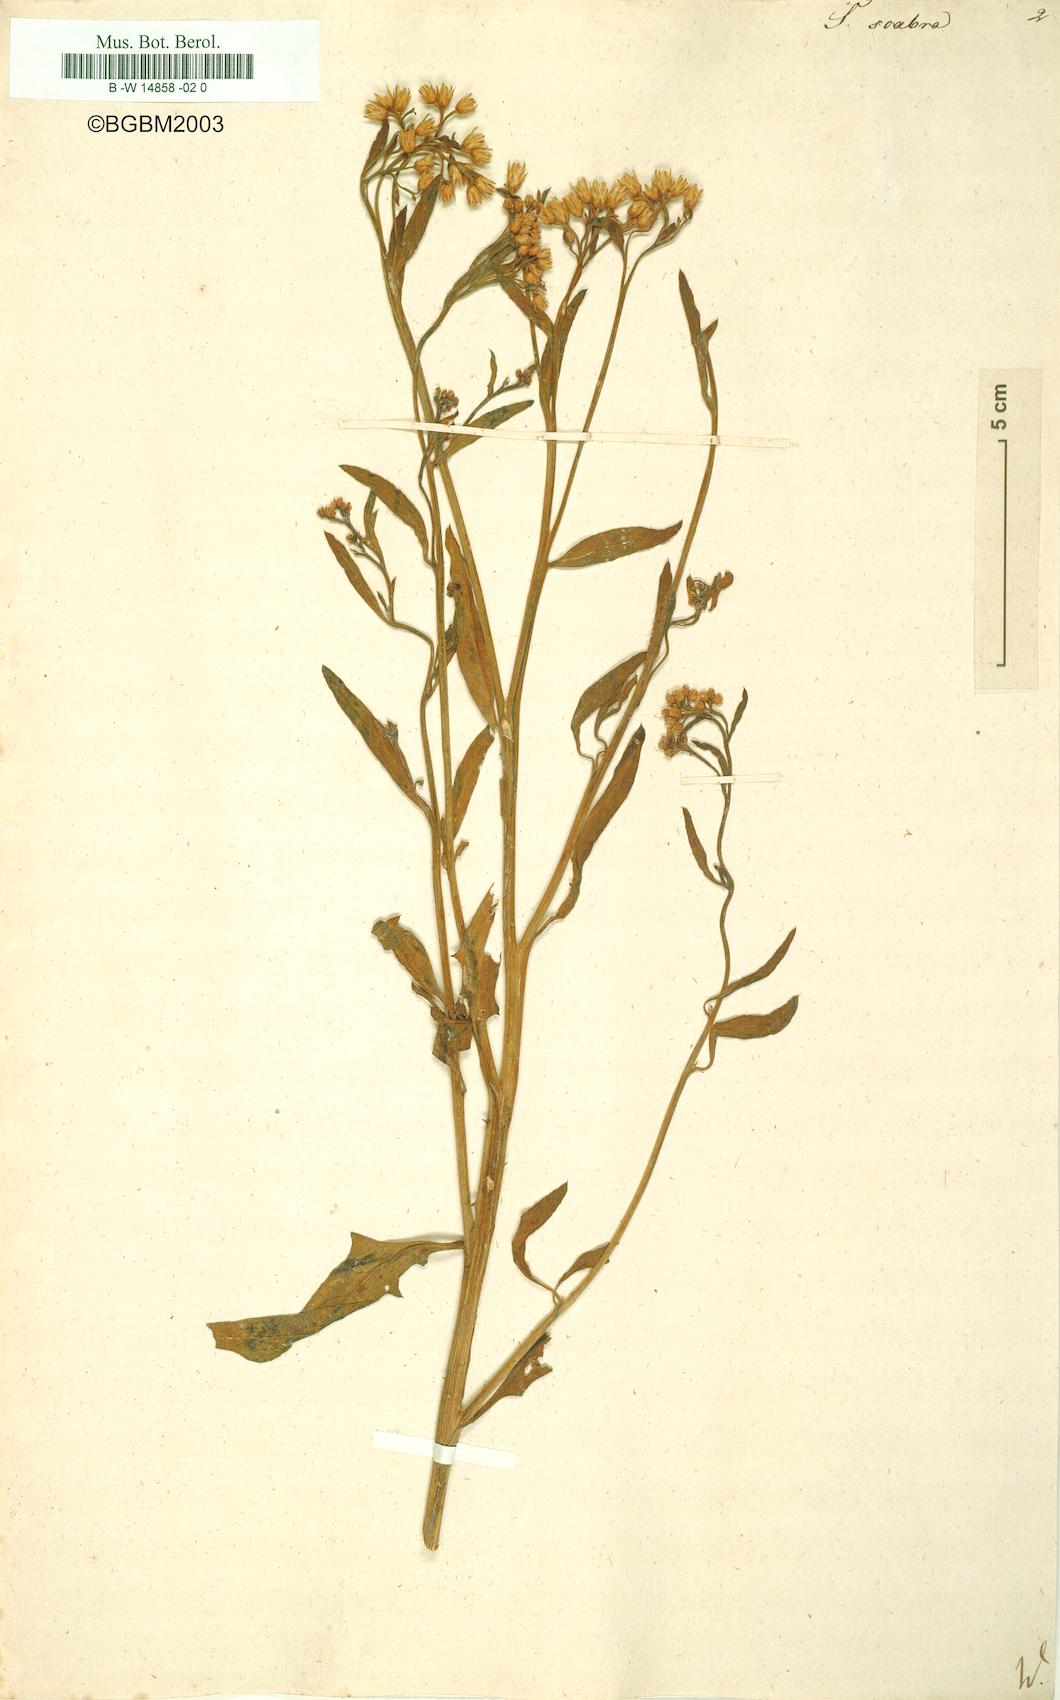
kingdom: Plantae
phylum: Tracheophyta
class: Magnoliopsida
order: Asterales
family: Asteraceae
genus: Serratula
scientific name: Serratula scabra
